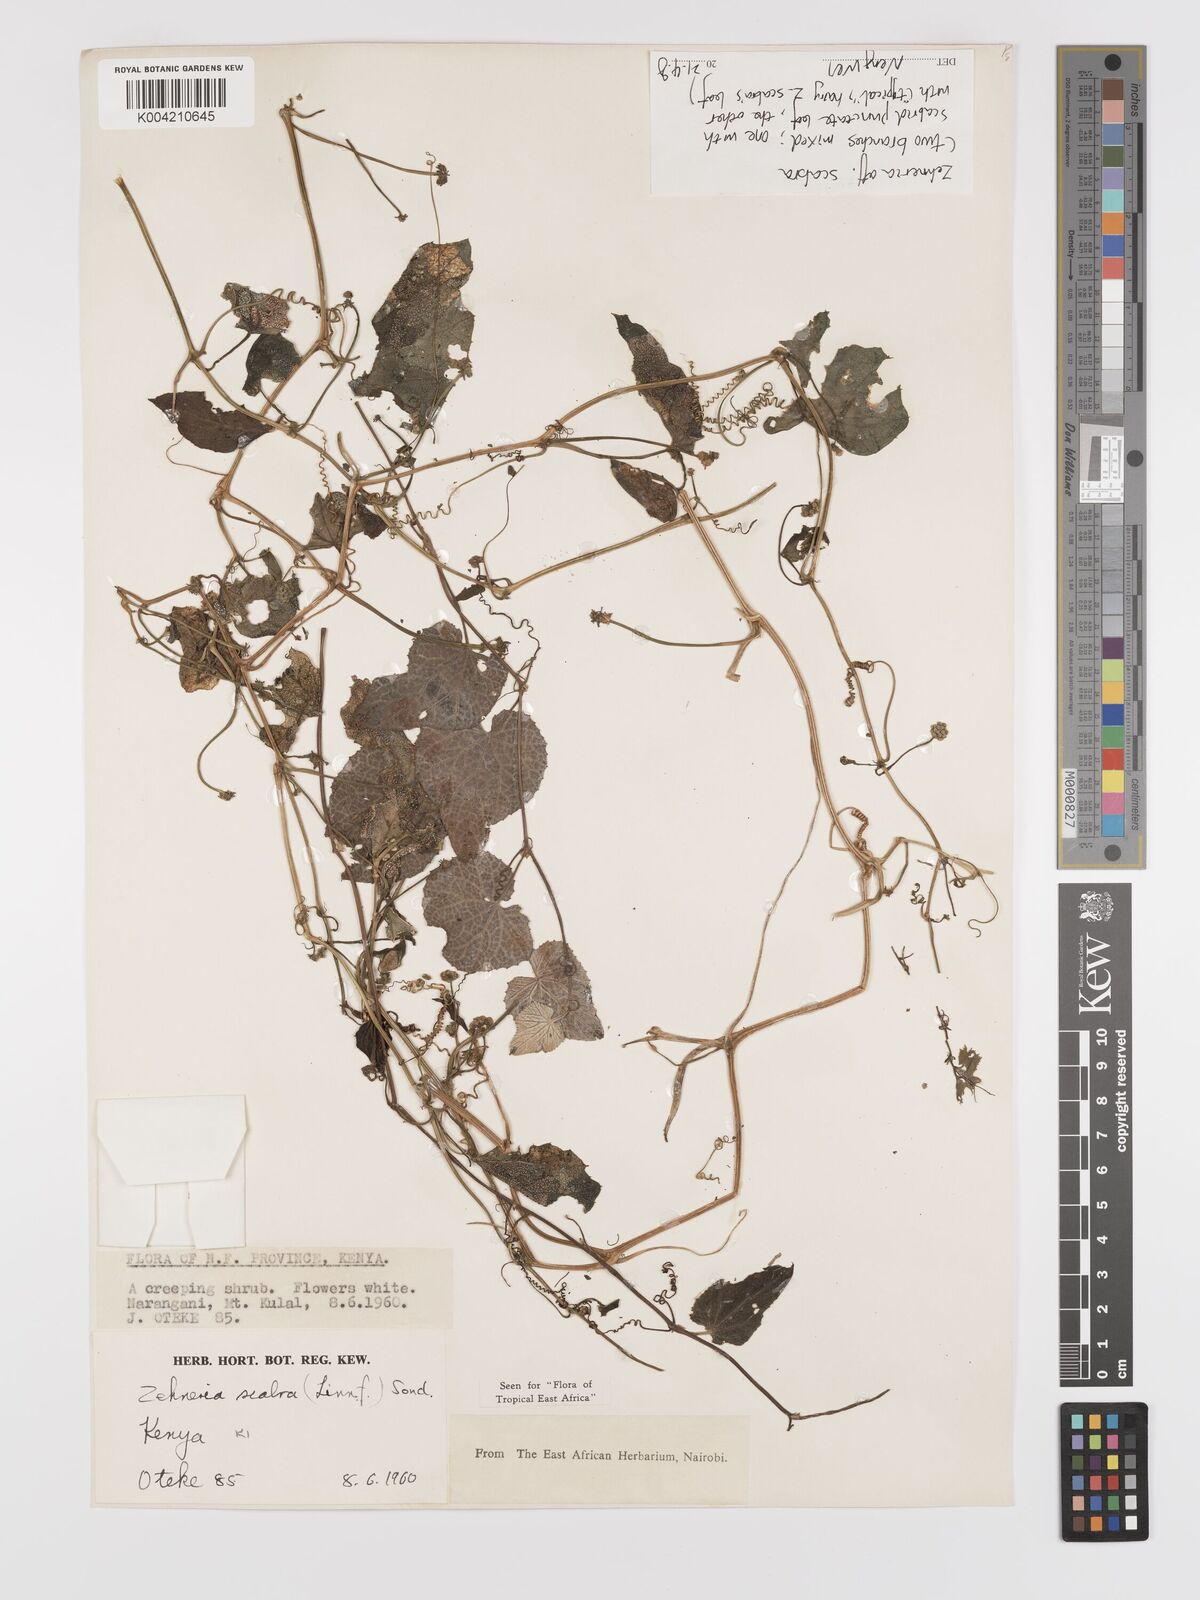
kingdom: Plantae
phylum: Tracheophyta
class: Magnoliopsida
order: Cucurbitales
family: Cucurbitaceae
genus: Zehneria
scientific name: Zehneria
